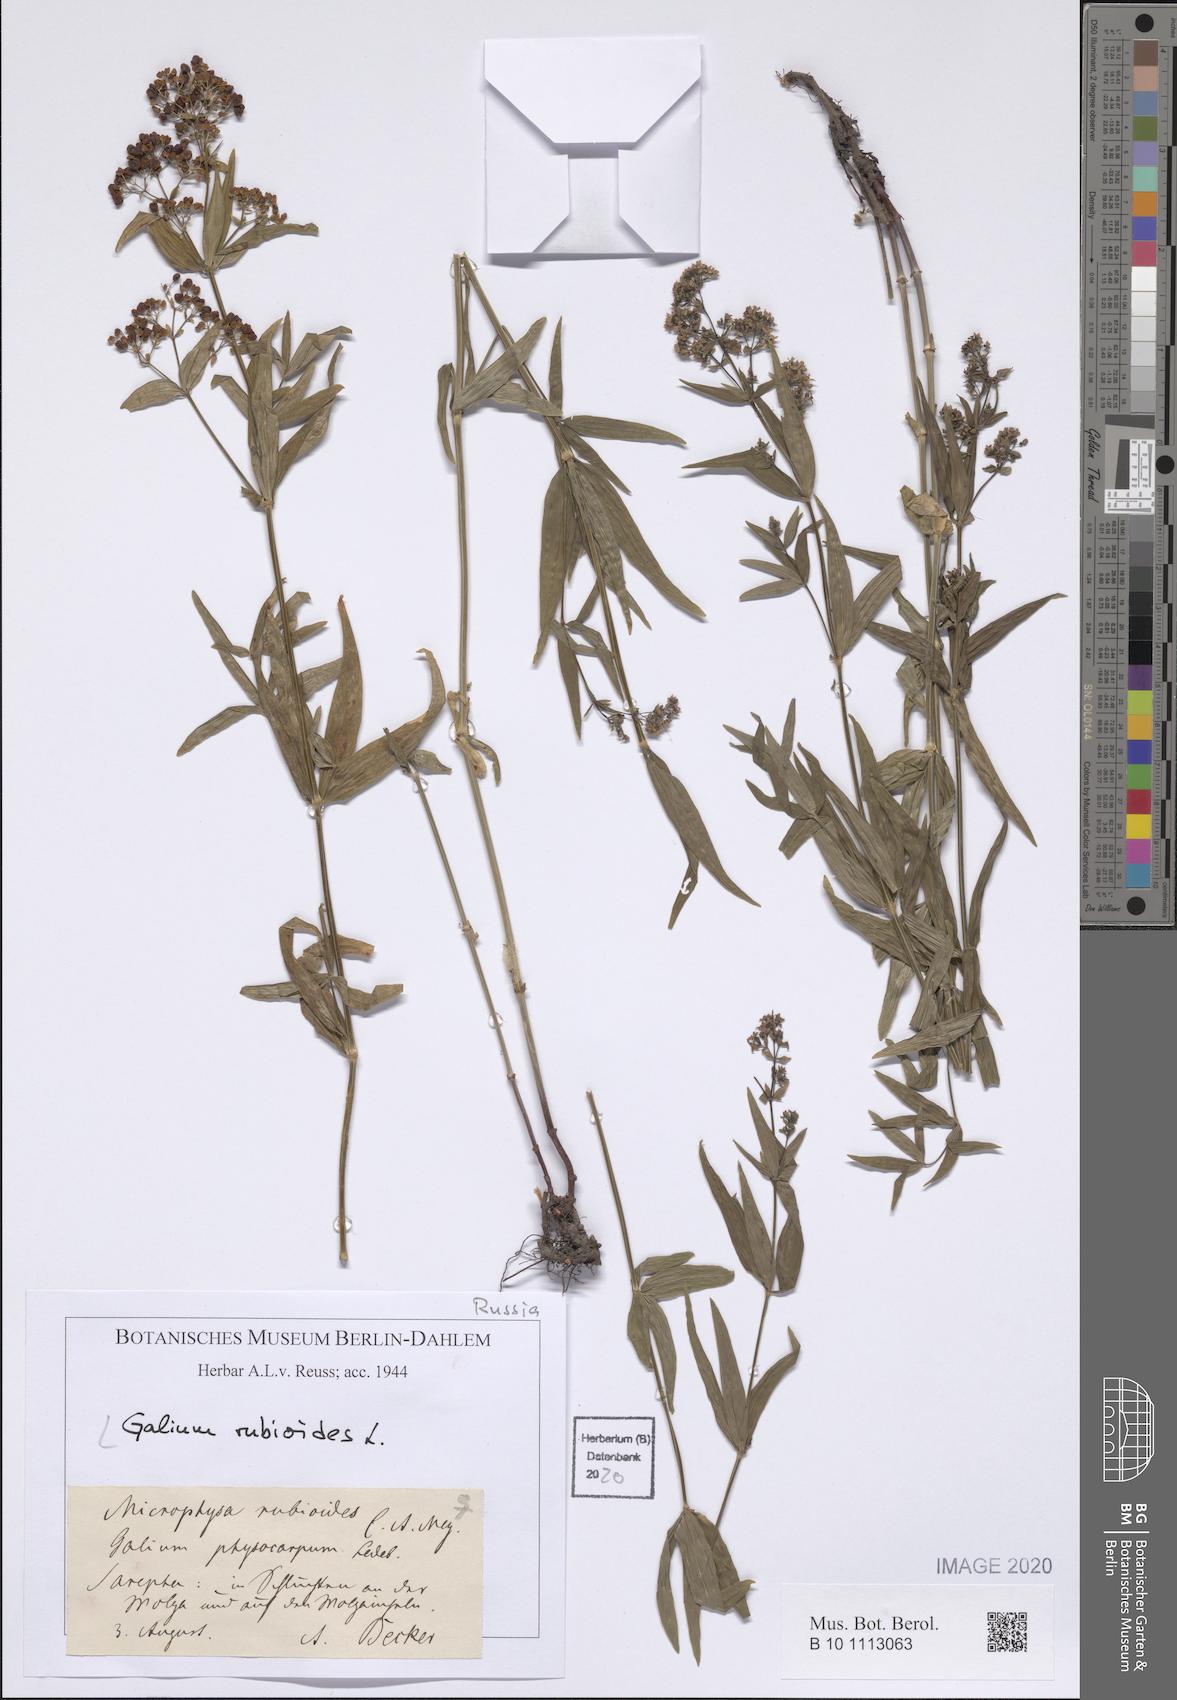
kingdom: Plantae
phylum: Tracheophyta
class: Magnoliopsida
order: Gentianales
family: Rubiaceae
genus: Galium
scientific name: Galium rubioides
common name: European bedstraw
